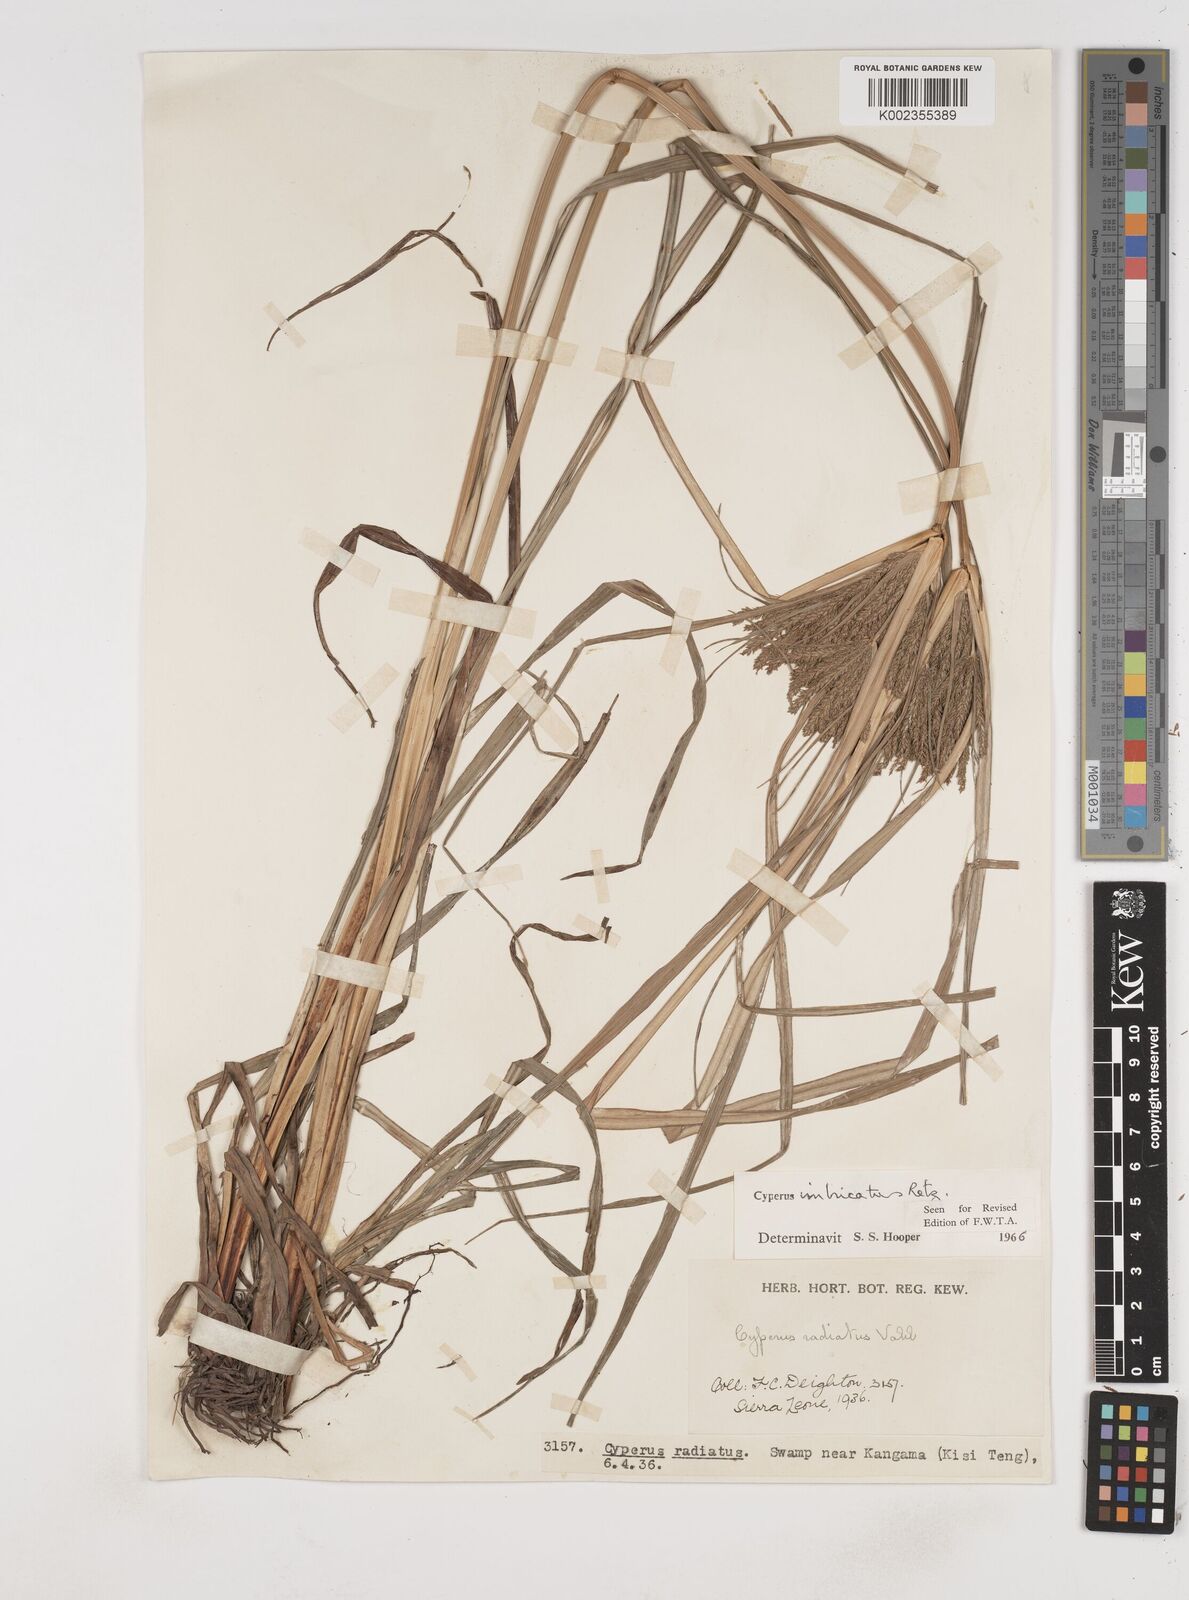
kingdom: Plantae
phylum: Tracheophyta
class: Liliopsida
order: Poales
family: Cyperaceae
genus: Cyperus
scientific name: Cyperus imbricatus
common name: Shingle flatsedge
